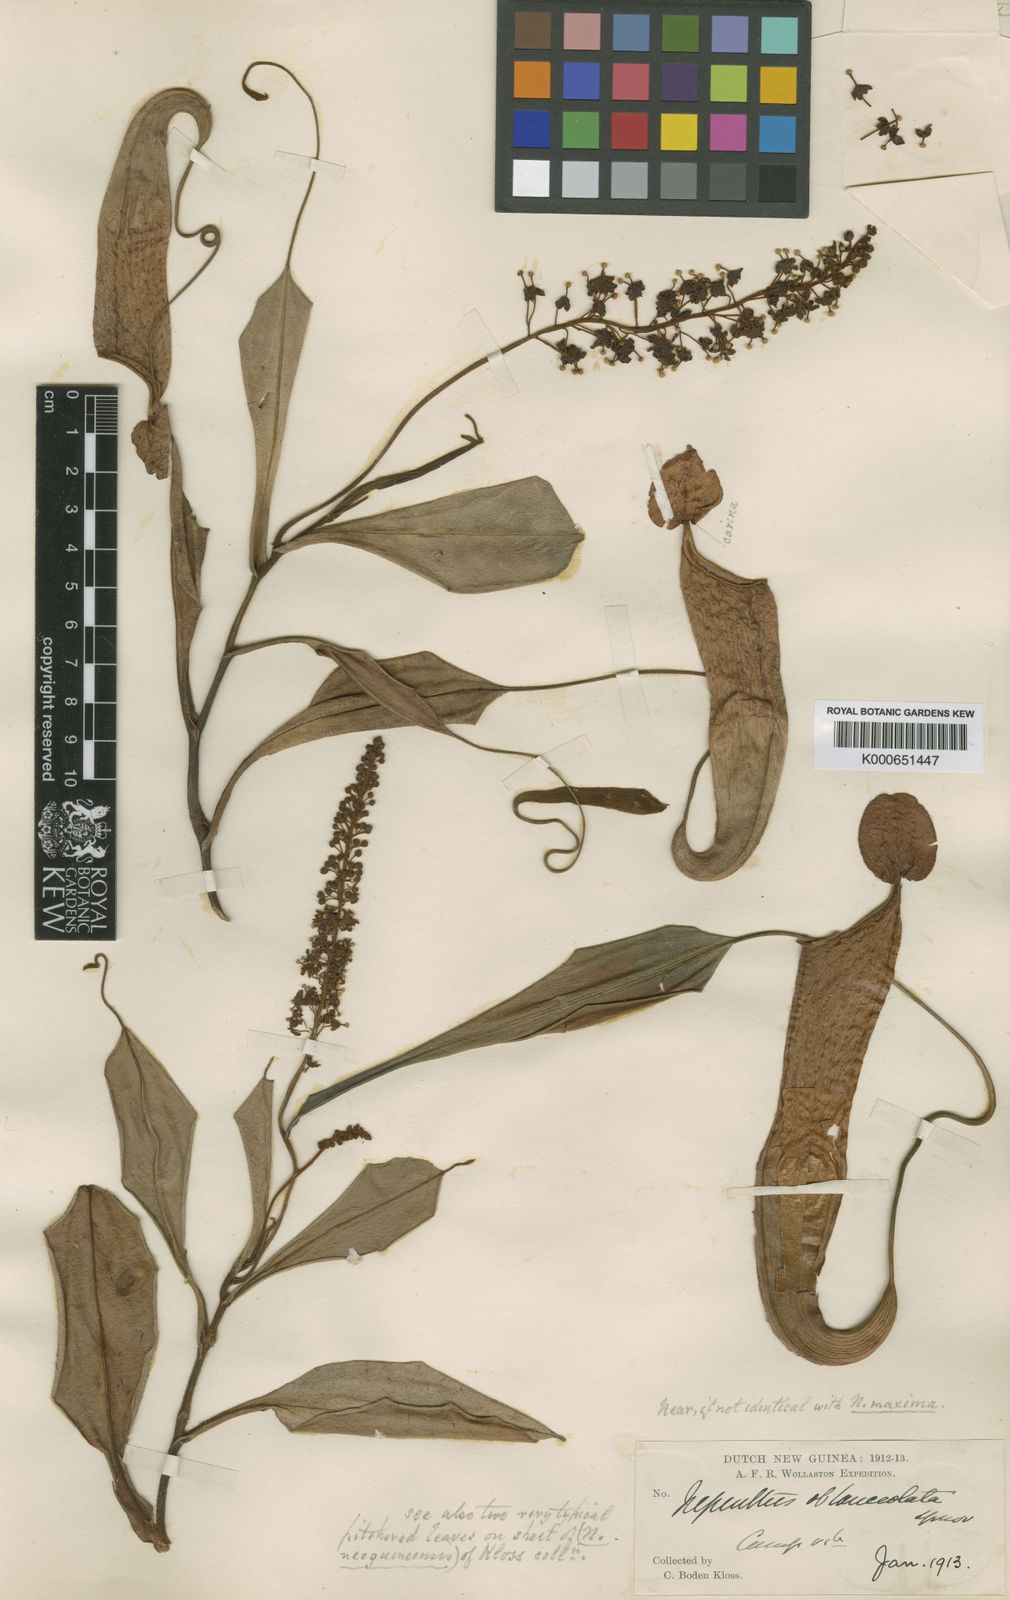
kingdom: Plantae
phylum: Tracheophyta
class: Magnoliopsida
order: Caryophyllales
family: Nepenthaceae
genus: Nepenthes
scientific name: Nepenthes maxima
